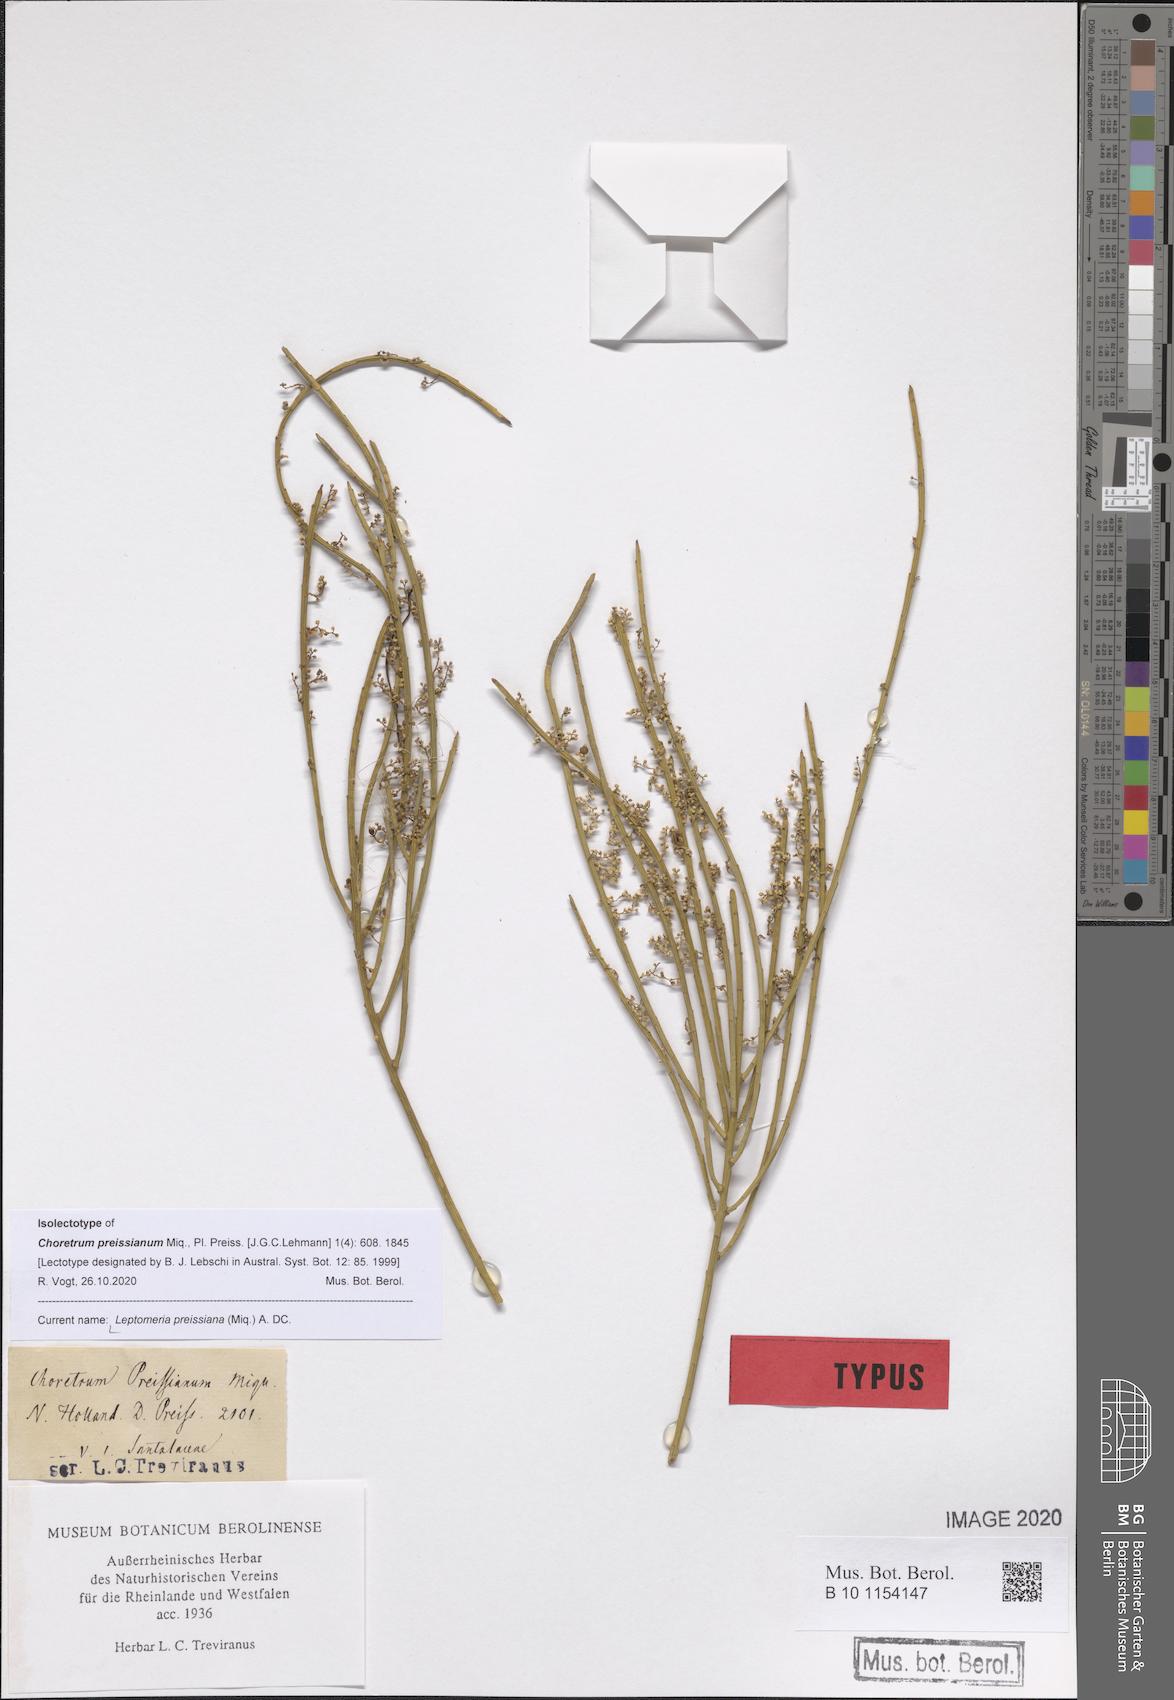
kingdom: Plantae
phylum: Tracheophyta
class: Magnoliopsida
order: Santalales
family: Amphorogynaceae
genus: Leptomeria
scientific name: Leptomeria preissiana
